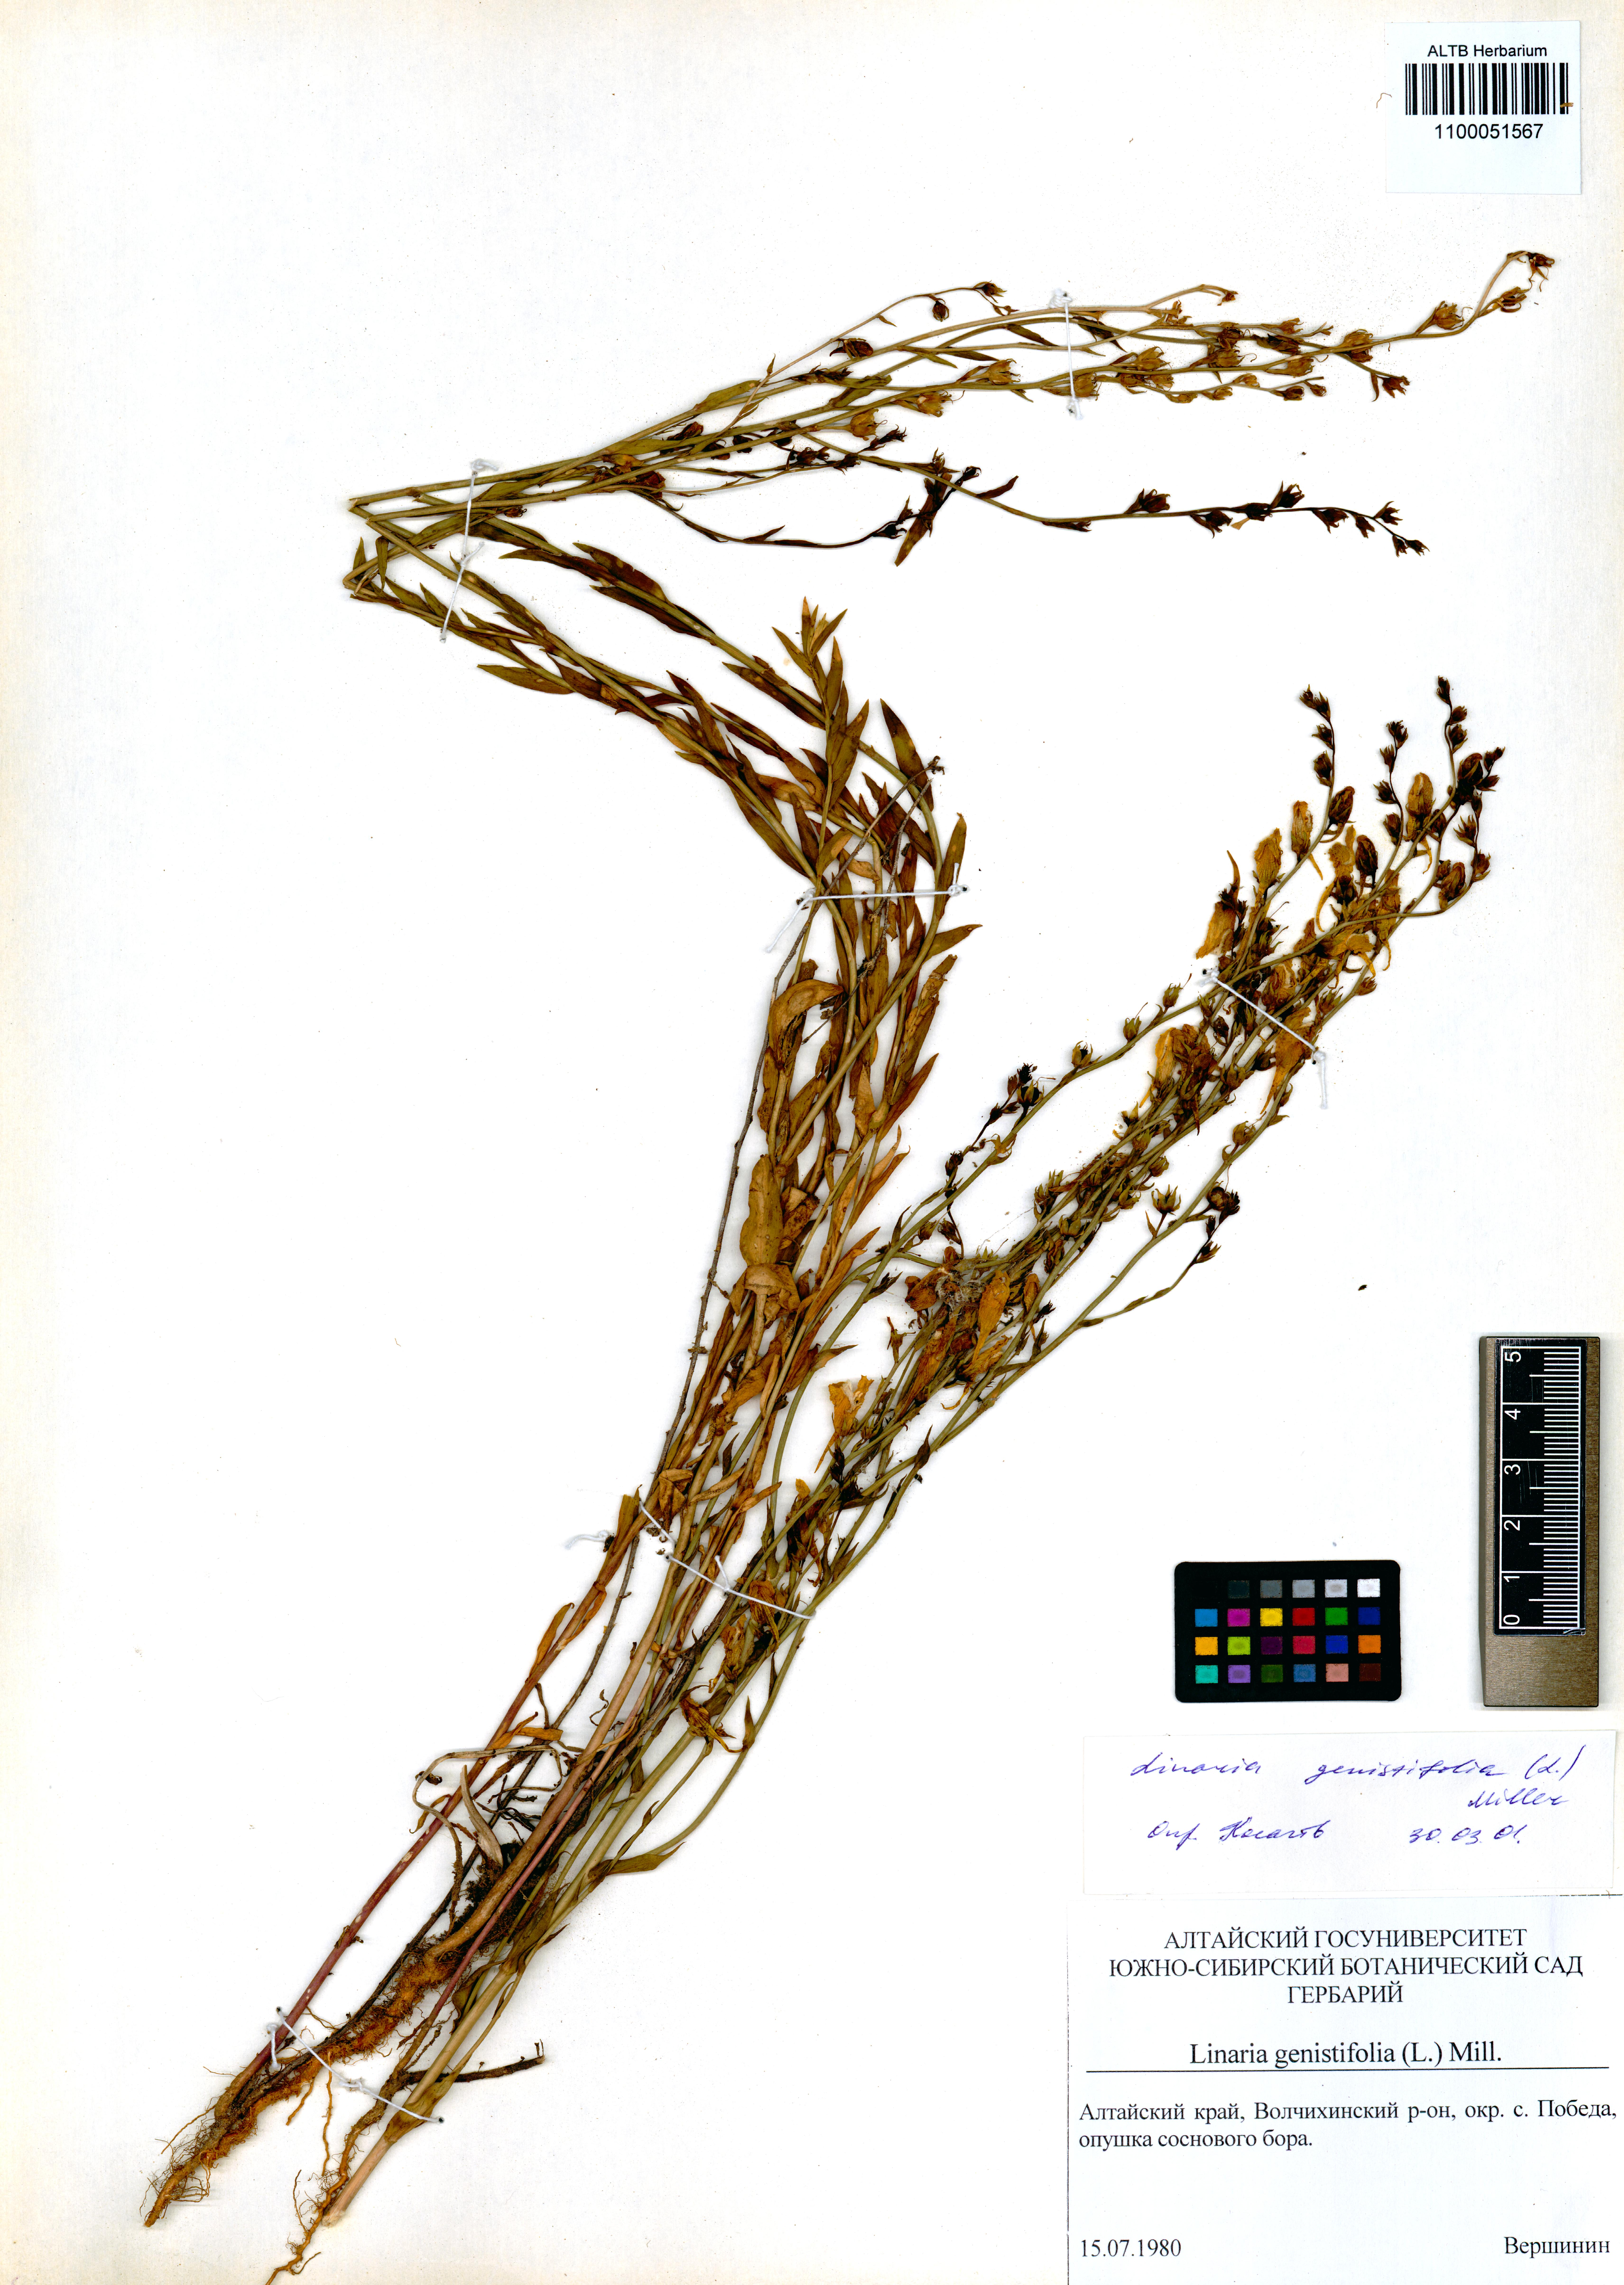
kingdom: Plantae
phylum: Tracheophyta
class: Magnoliopsida
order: Lamiales
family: Plantaginaceae
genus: Linaria
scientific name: Linaria genistifolia
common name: Broomleaf toadflax
